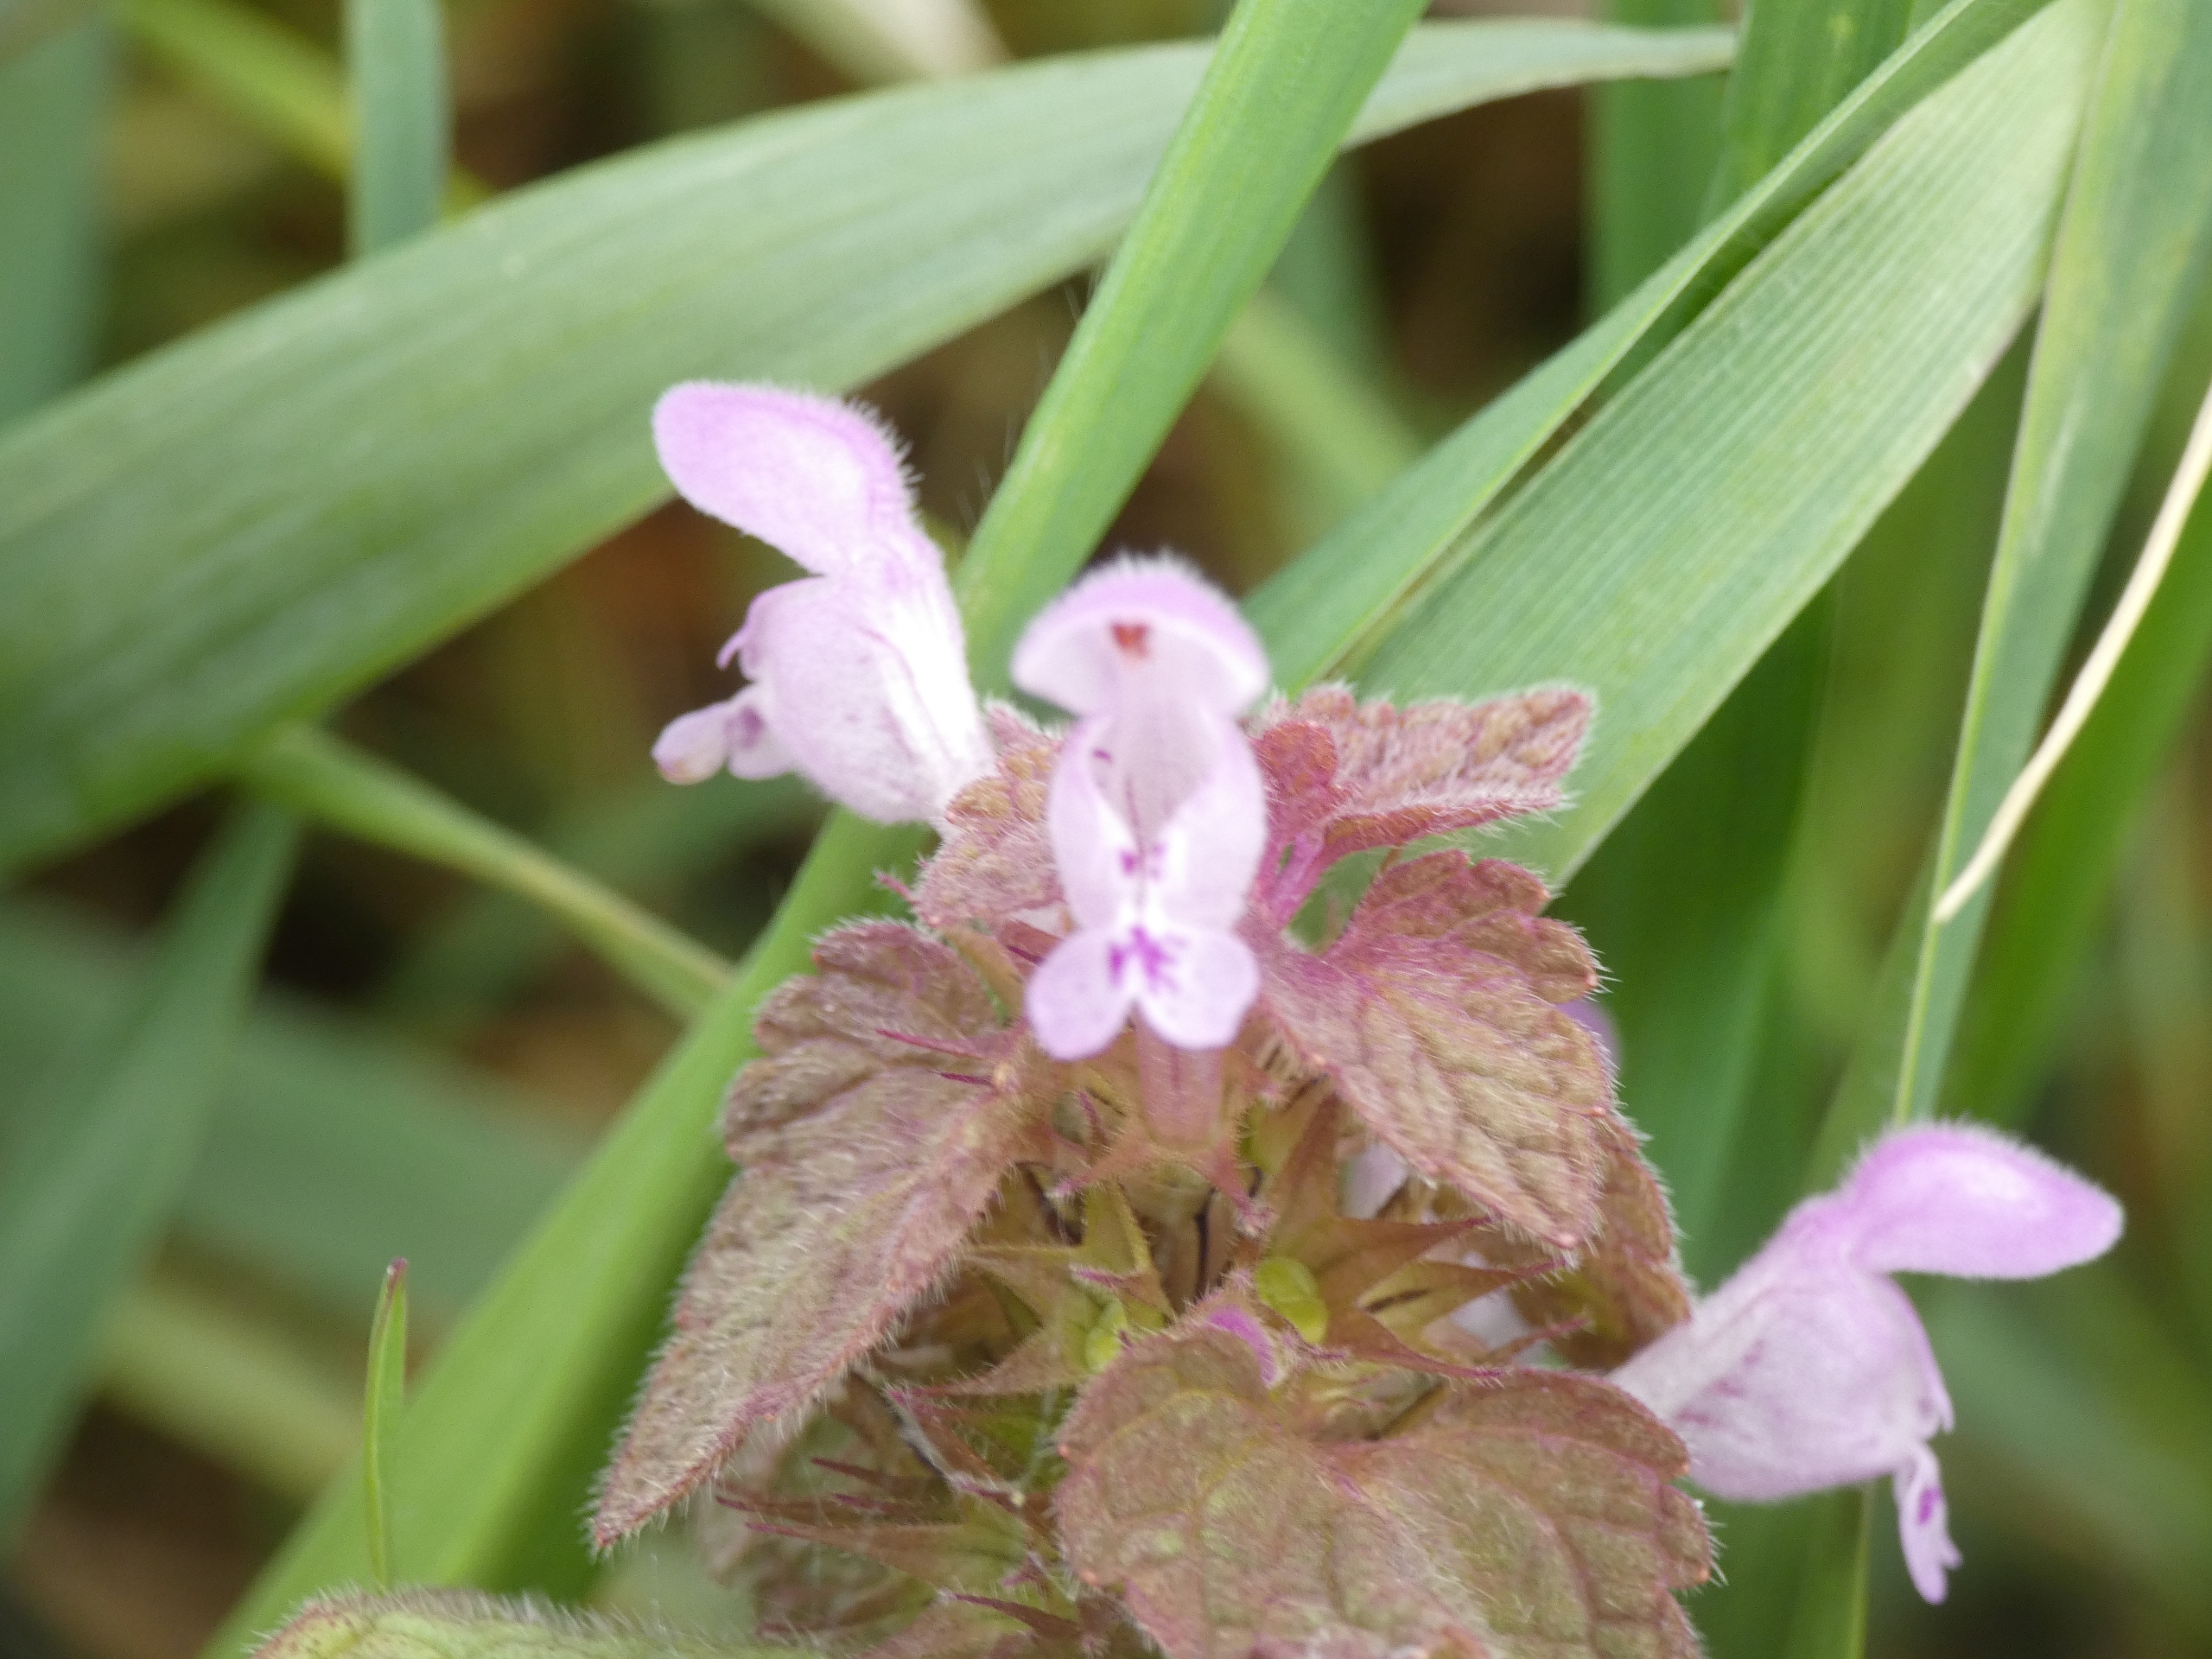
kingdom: Plantae
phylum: Tracheophyta
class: Magnoliopsida
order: Lamiales
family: Lamiaceae
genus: Lamium
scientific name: Lamium purpureum
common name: Rød tvetand
